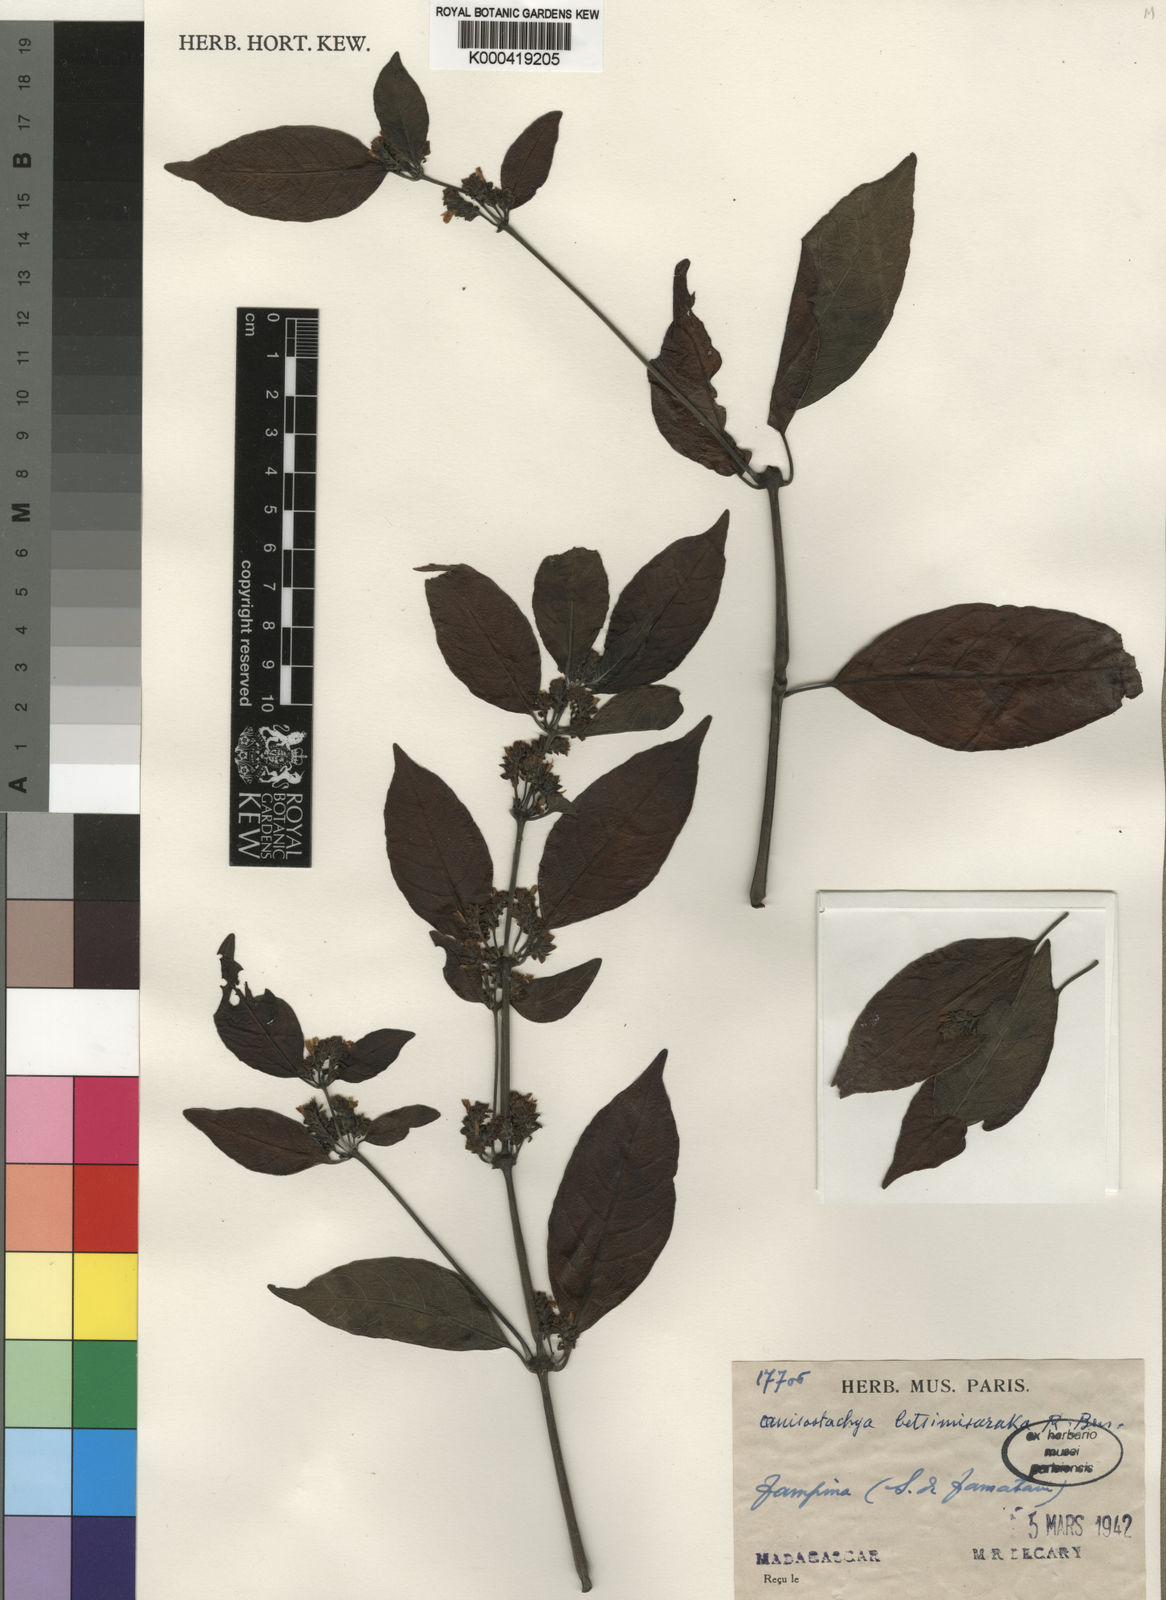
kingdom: Plantae
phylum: Tracheophyta
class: Magnoliopsida
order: Lamiales
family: Acanthaceae
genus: Justicia
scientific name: Justicia
